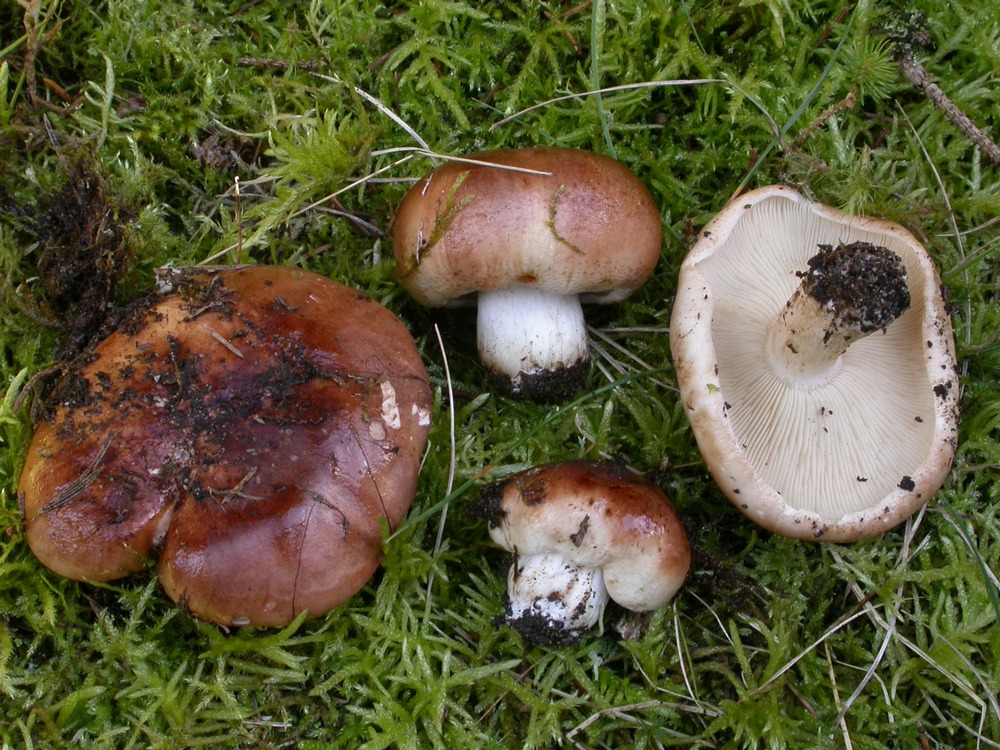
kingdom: Fungi
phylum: Basidiomycota
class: Agaricomycetes
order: Agaricales
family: Tricholomataceae
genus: Tricholoma
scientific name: Tricholoma stans
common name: stolt ridderhat
